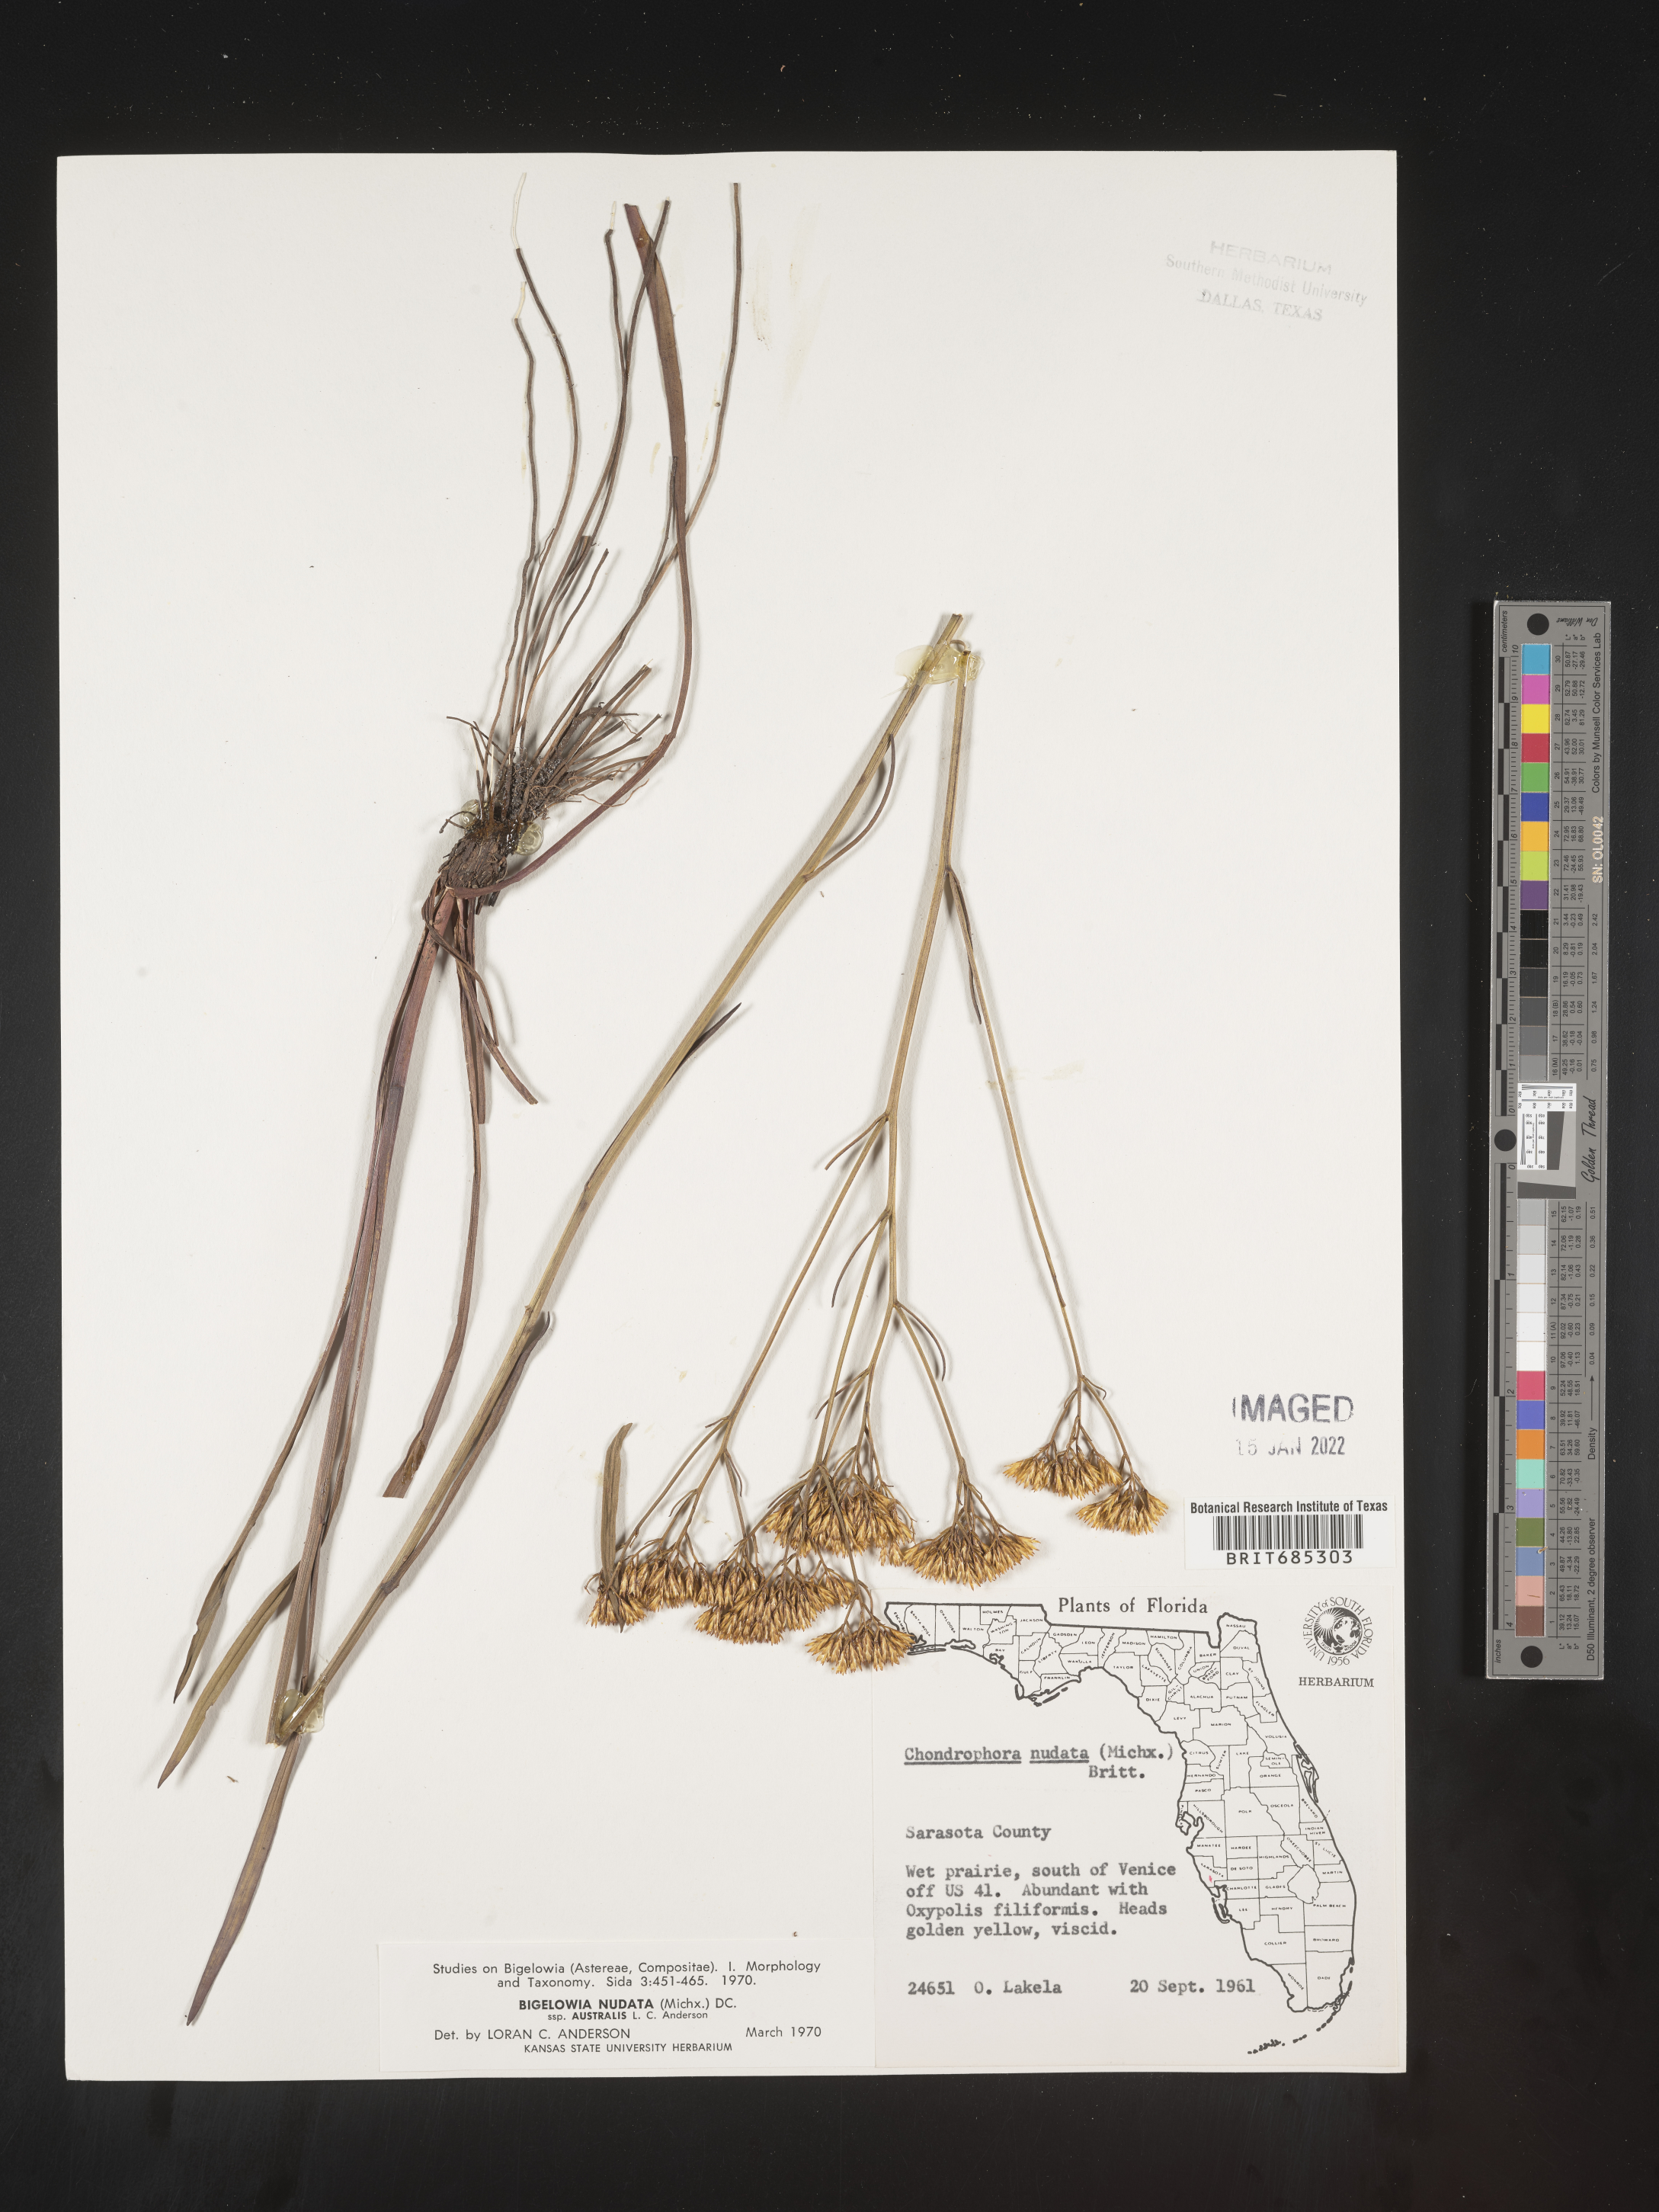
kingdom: Plantae
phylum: Tracheophyta
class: Magnoliopsida
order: Asterales
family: Asteraceae
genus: Bigelowia
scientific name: Bigelowia nudata
